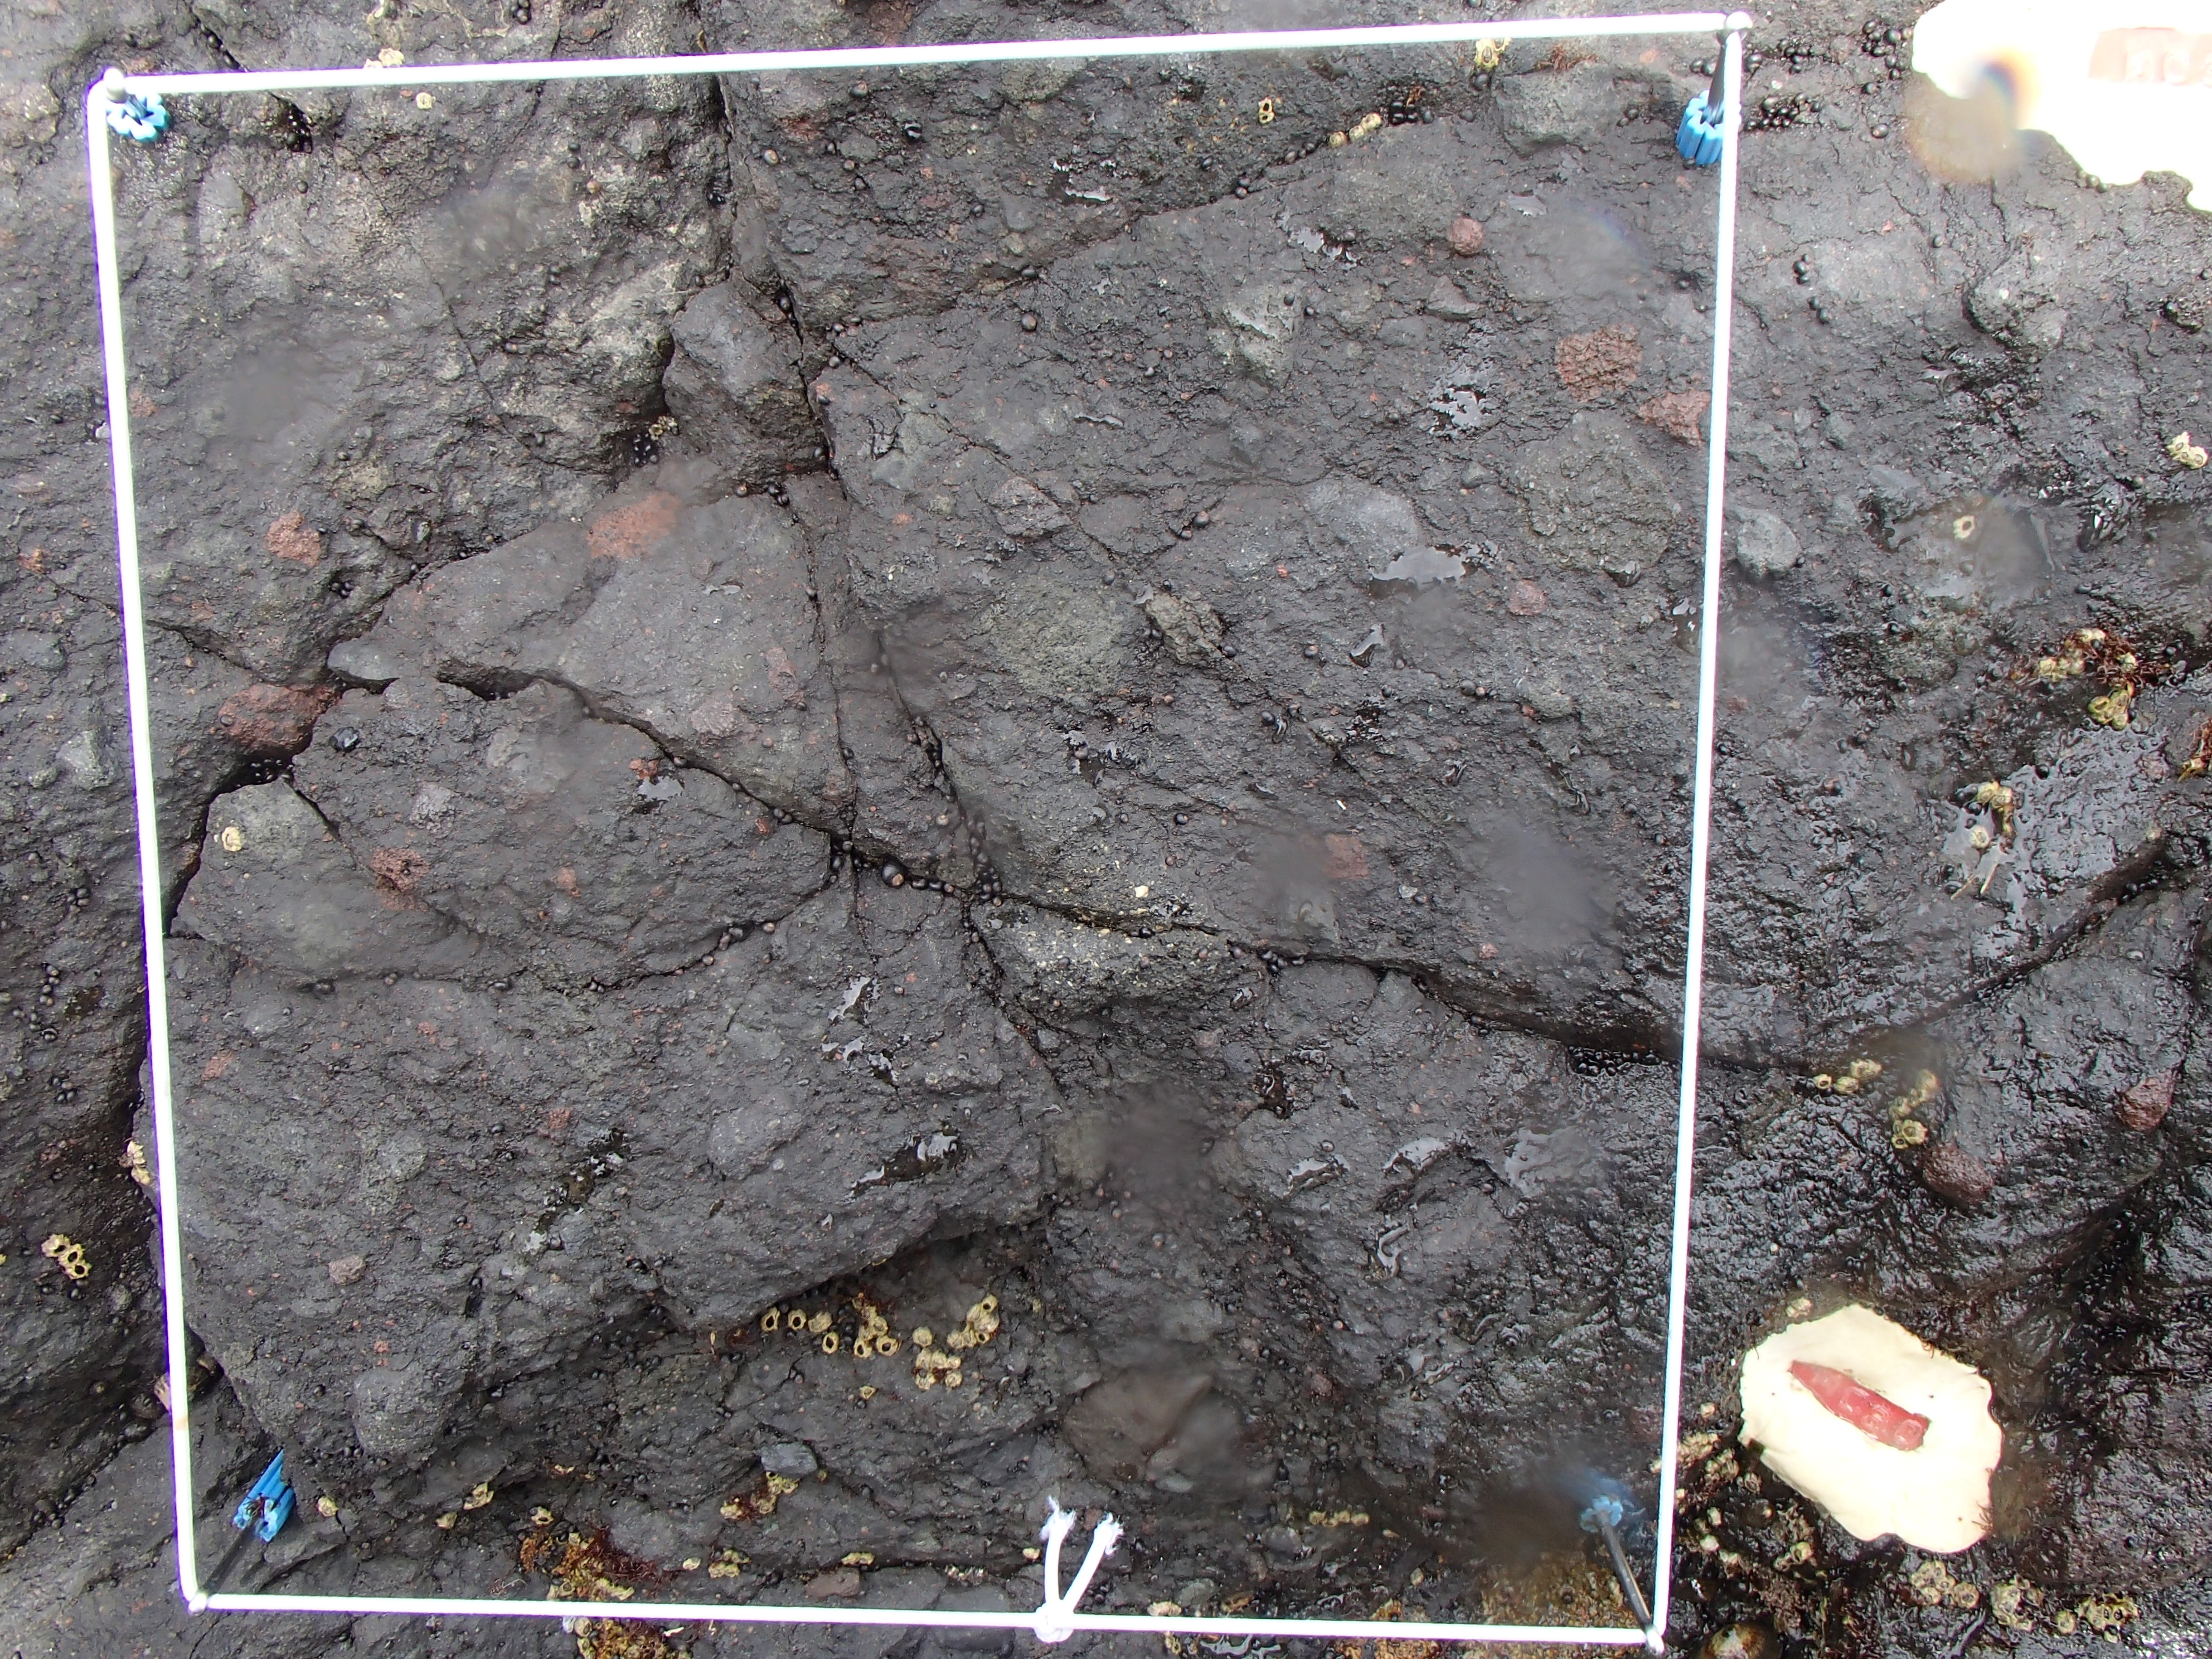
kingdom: Plantae
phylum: Rhodophyta
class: Florideophyceae
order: Gigartinales
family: Endocladiaceae
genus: Gloiopeltis
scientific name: Gloiopeltis furcata
